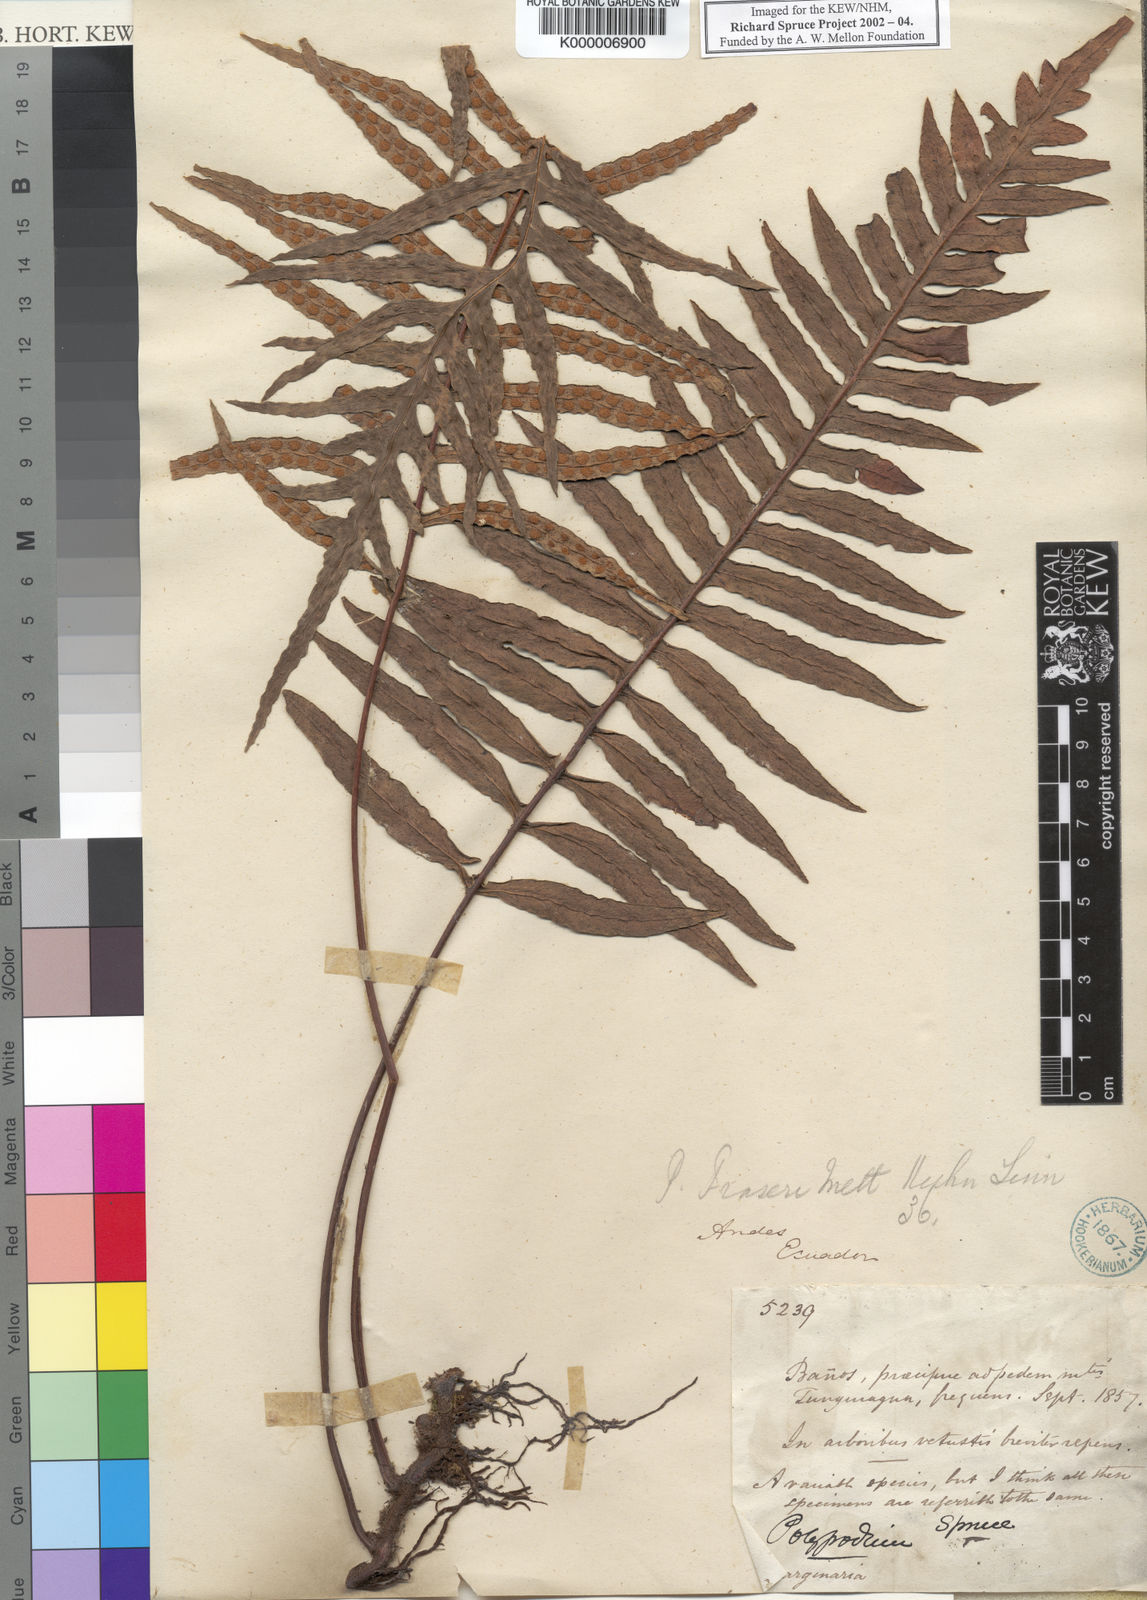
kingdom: Plantae
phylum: Tracheophyta
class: Polypodiopsida
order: Polypodiales
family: Polypodiaceae
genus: Pleopeltis
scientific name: Pleopeltis fraseri
